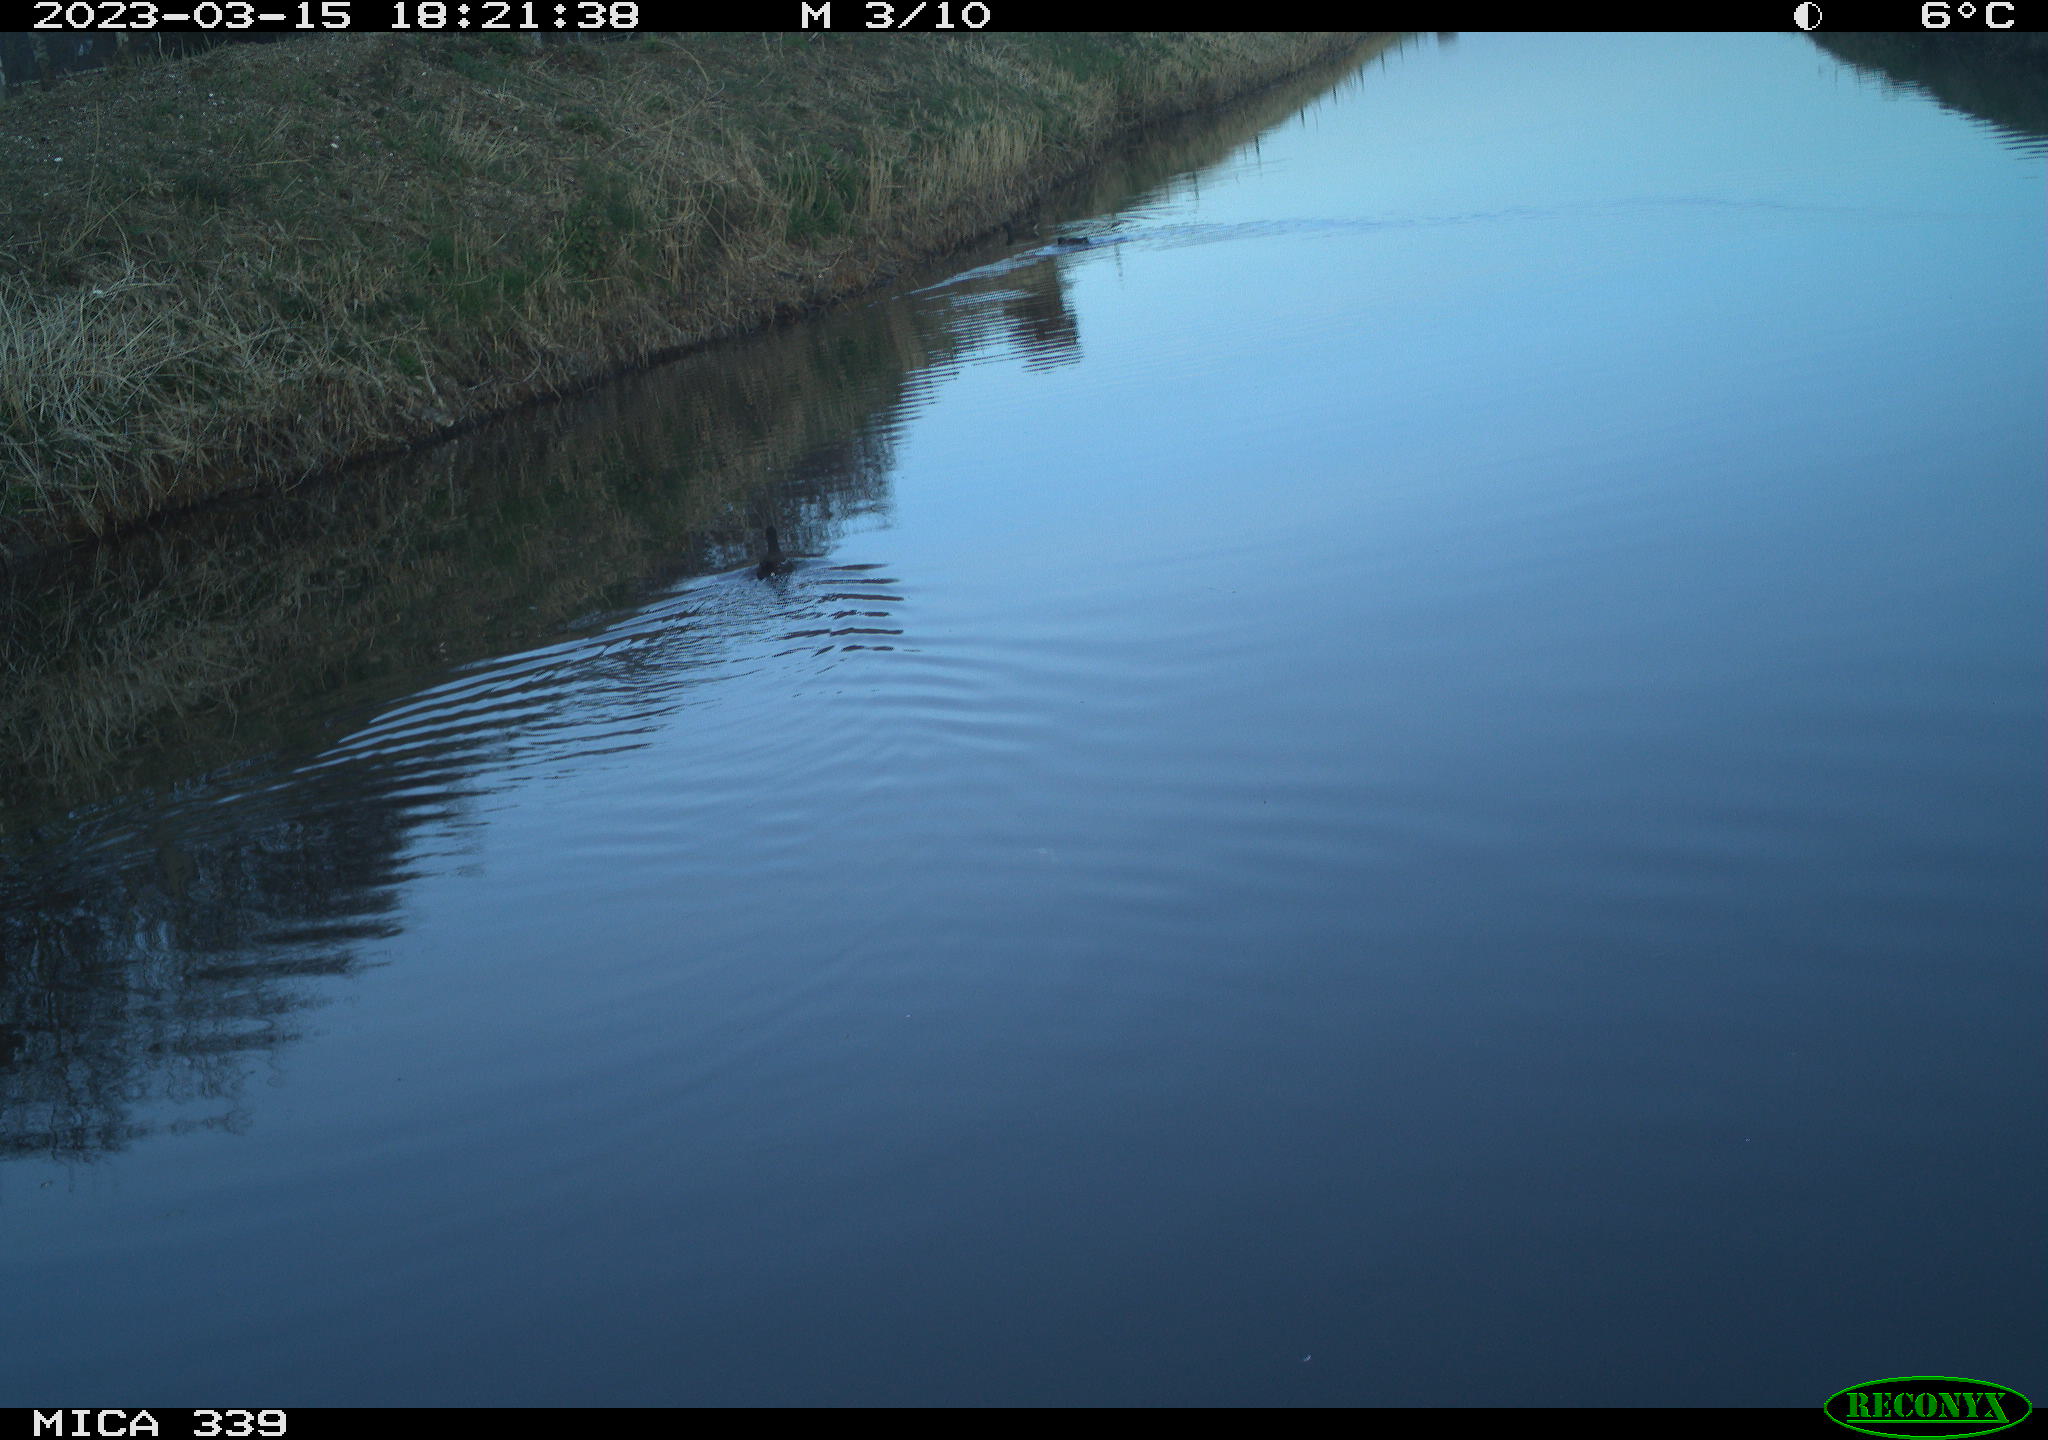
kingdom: Animalia
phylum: Chordata
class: Aves
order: Anseriformes
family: Anatidae
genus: Anas
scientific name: Anas
